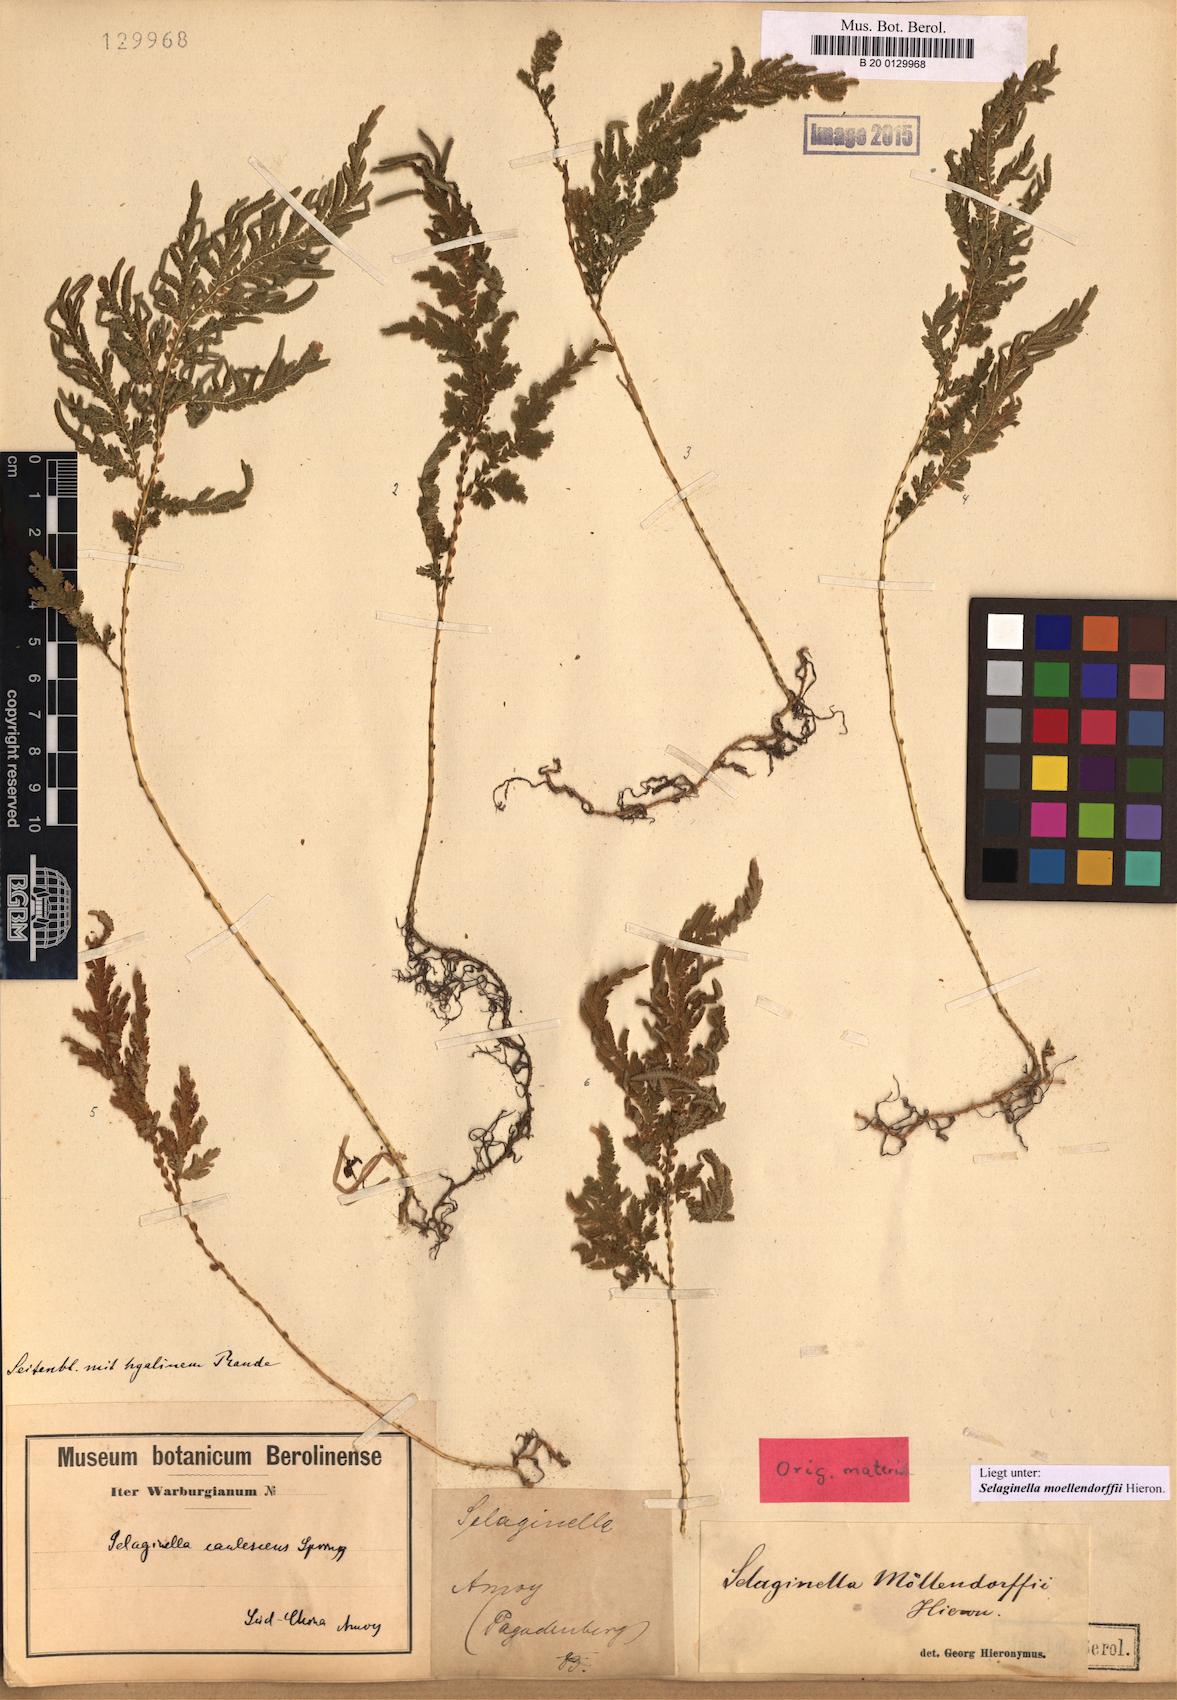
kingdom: Plantae
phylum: Tracheophyta
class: Lycopodiopsida
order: Selaginellales
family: Selaginellaceae
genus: Selaginella
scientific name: Selaginella moellendorffii
